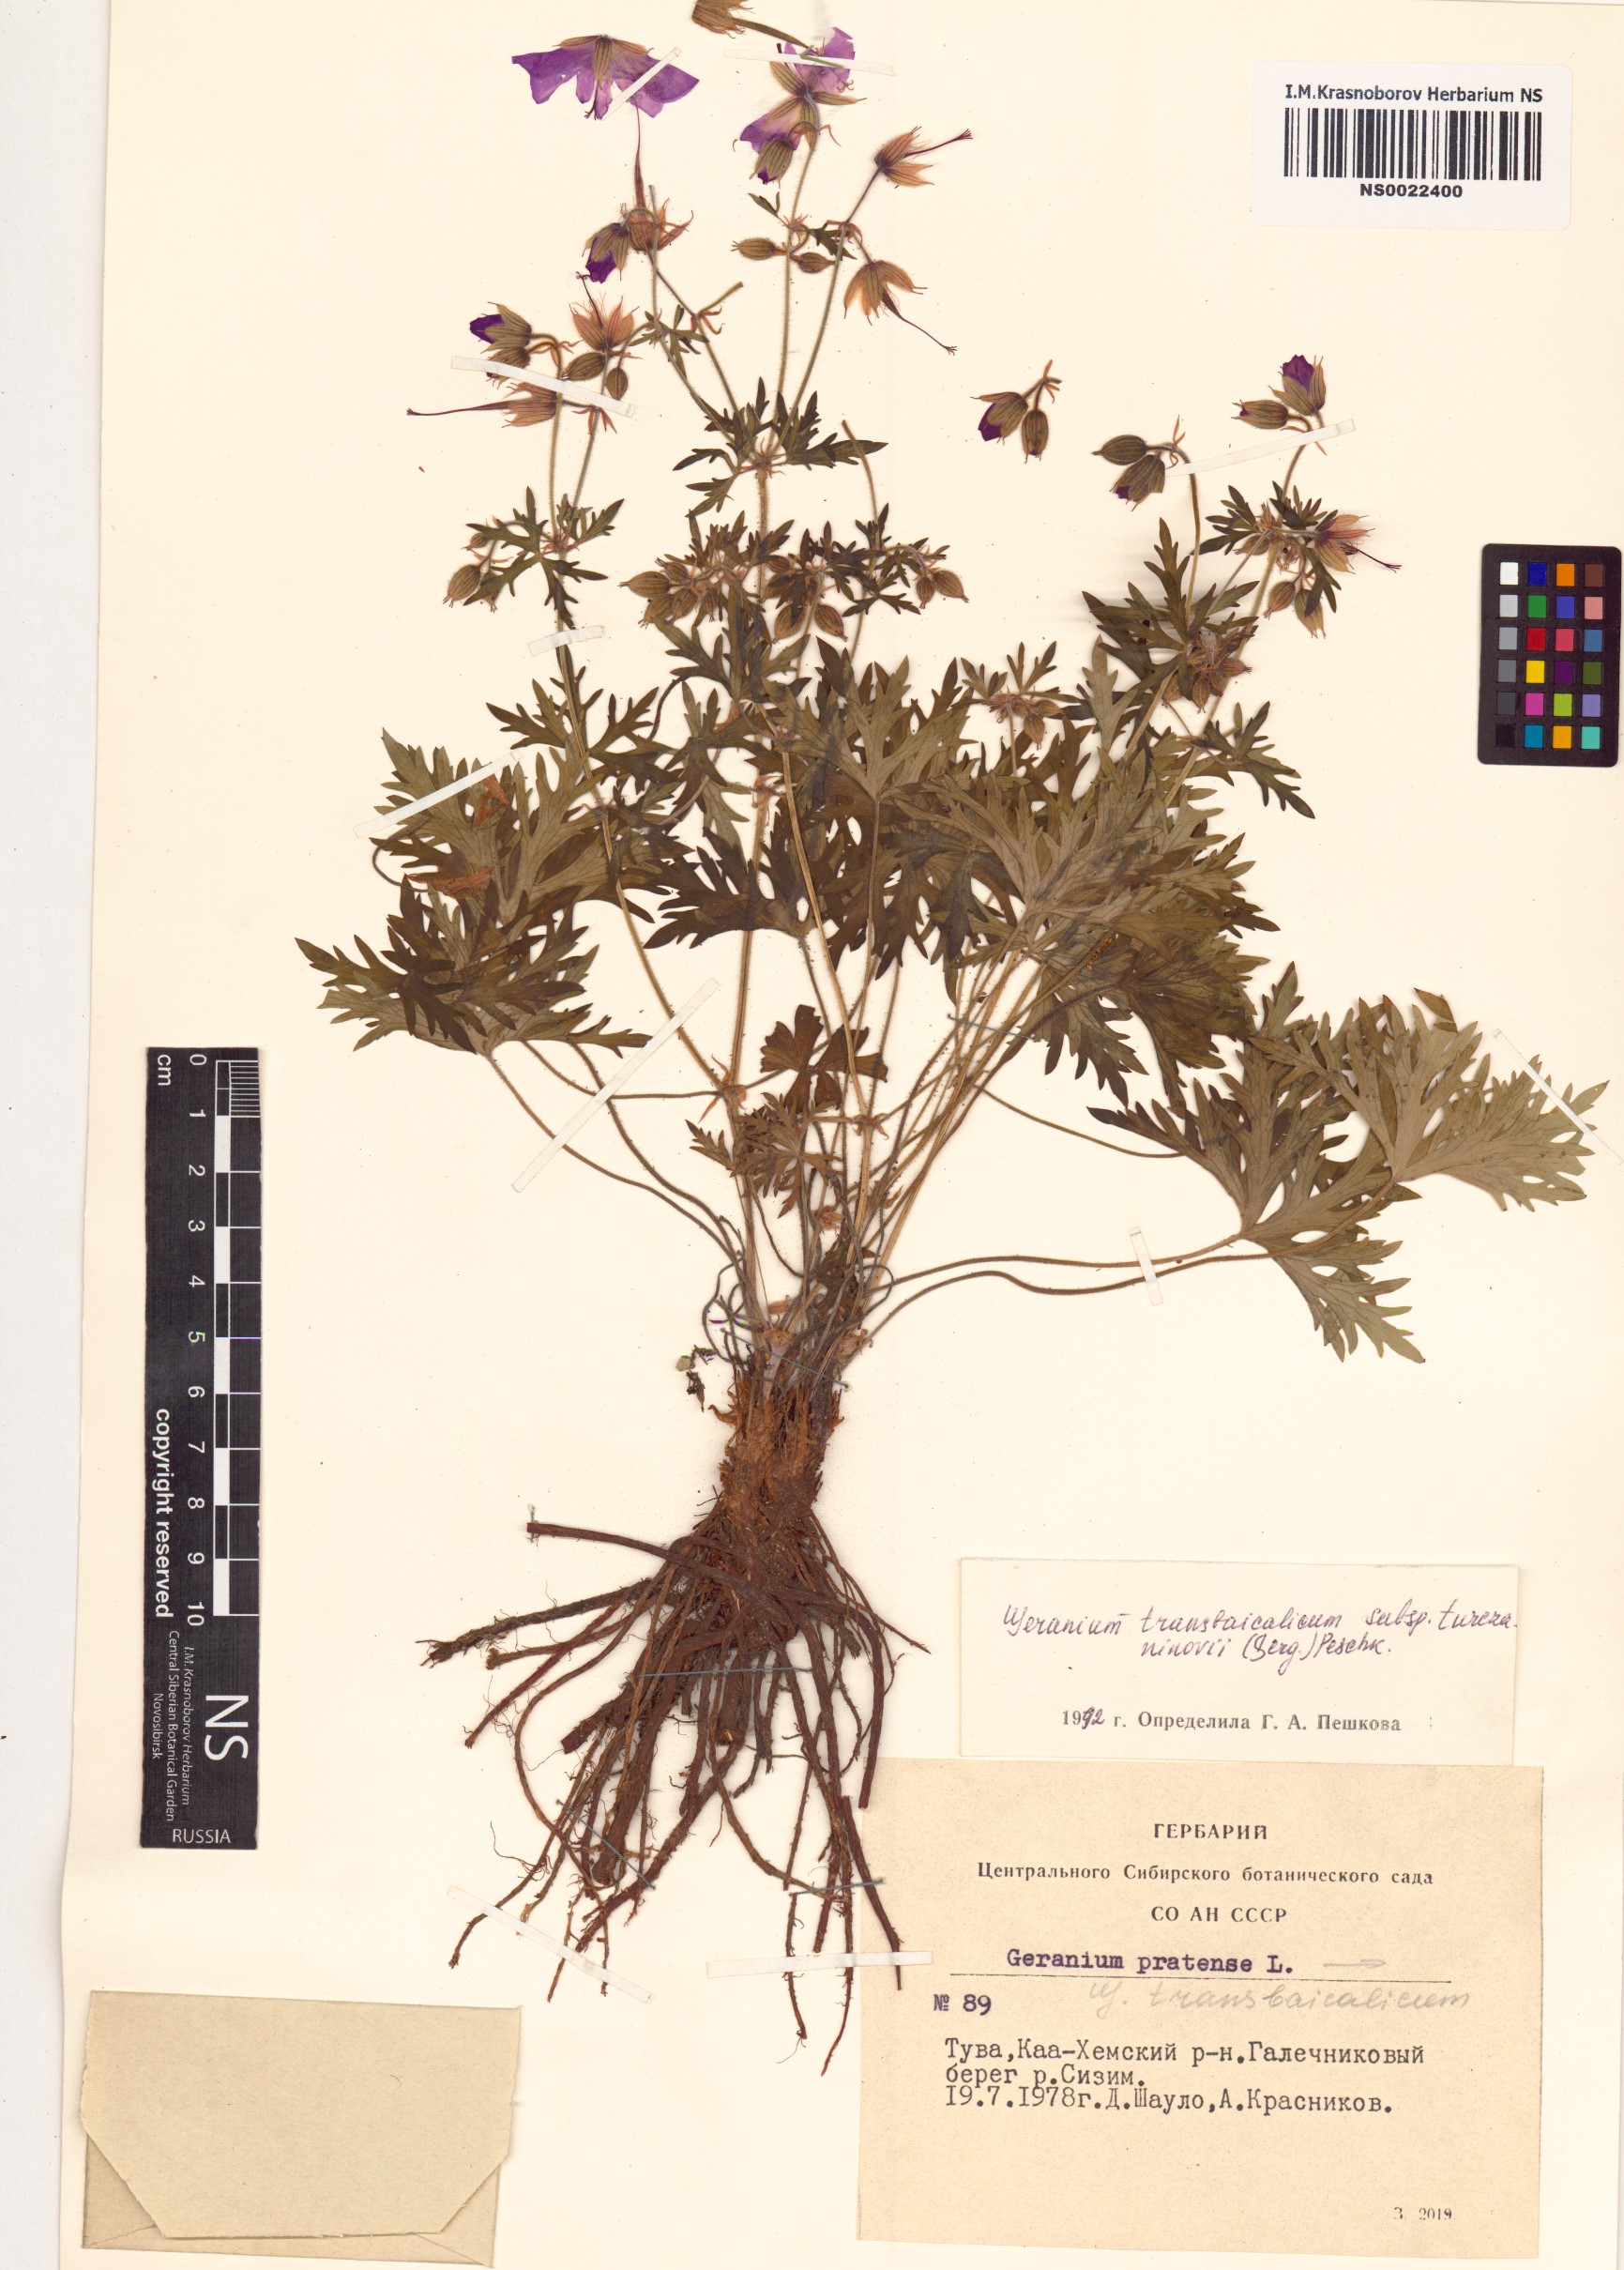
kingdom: Plantae
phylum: Tracheophyta
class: Magnoliopsida
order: Geraniales
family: Geraniaceae
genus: Geranium
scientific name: Geranium pratense
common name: Meadow crane's-bill
